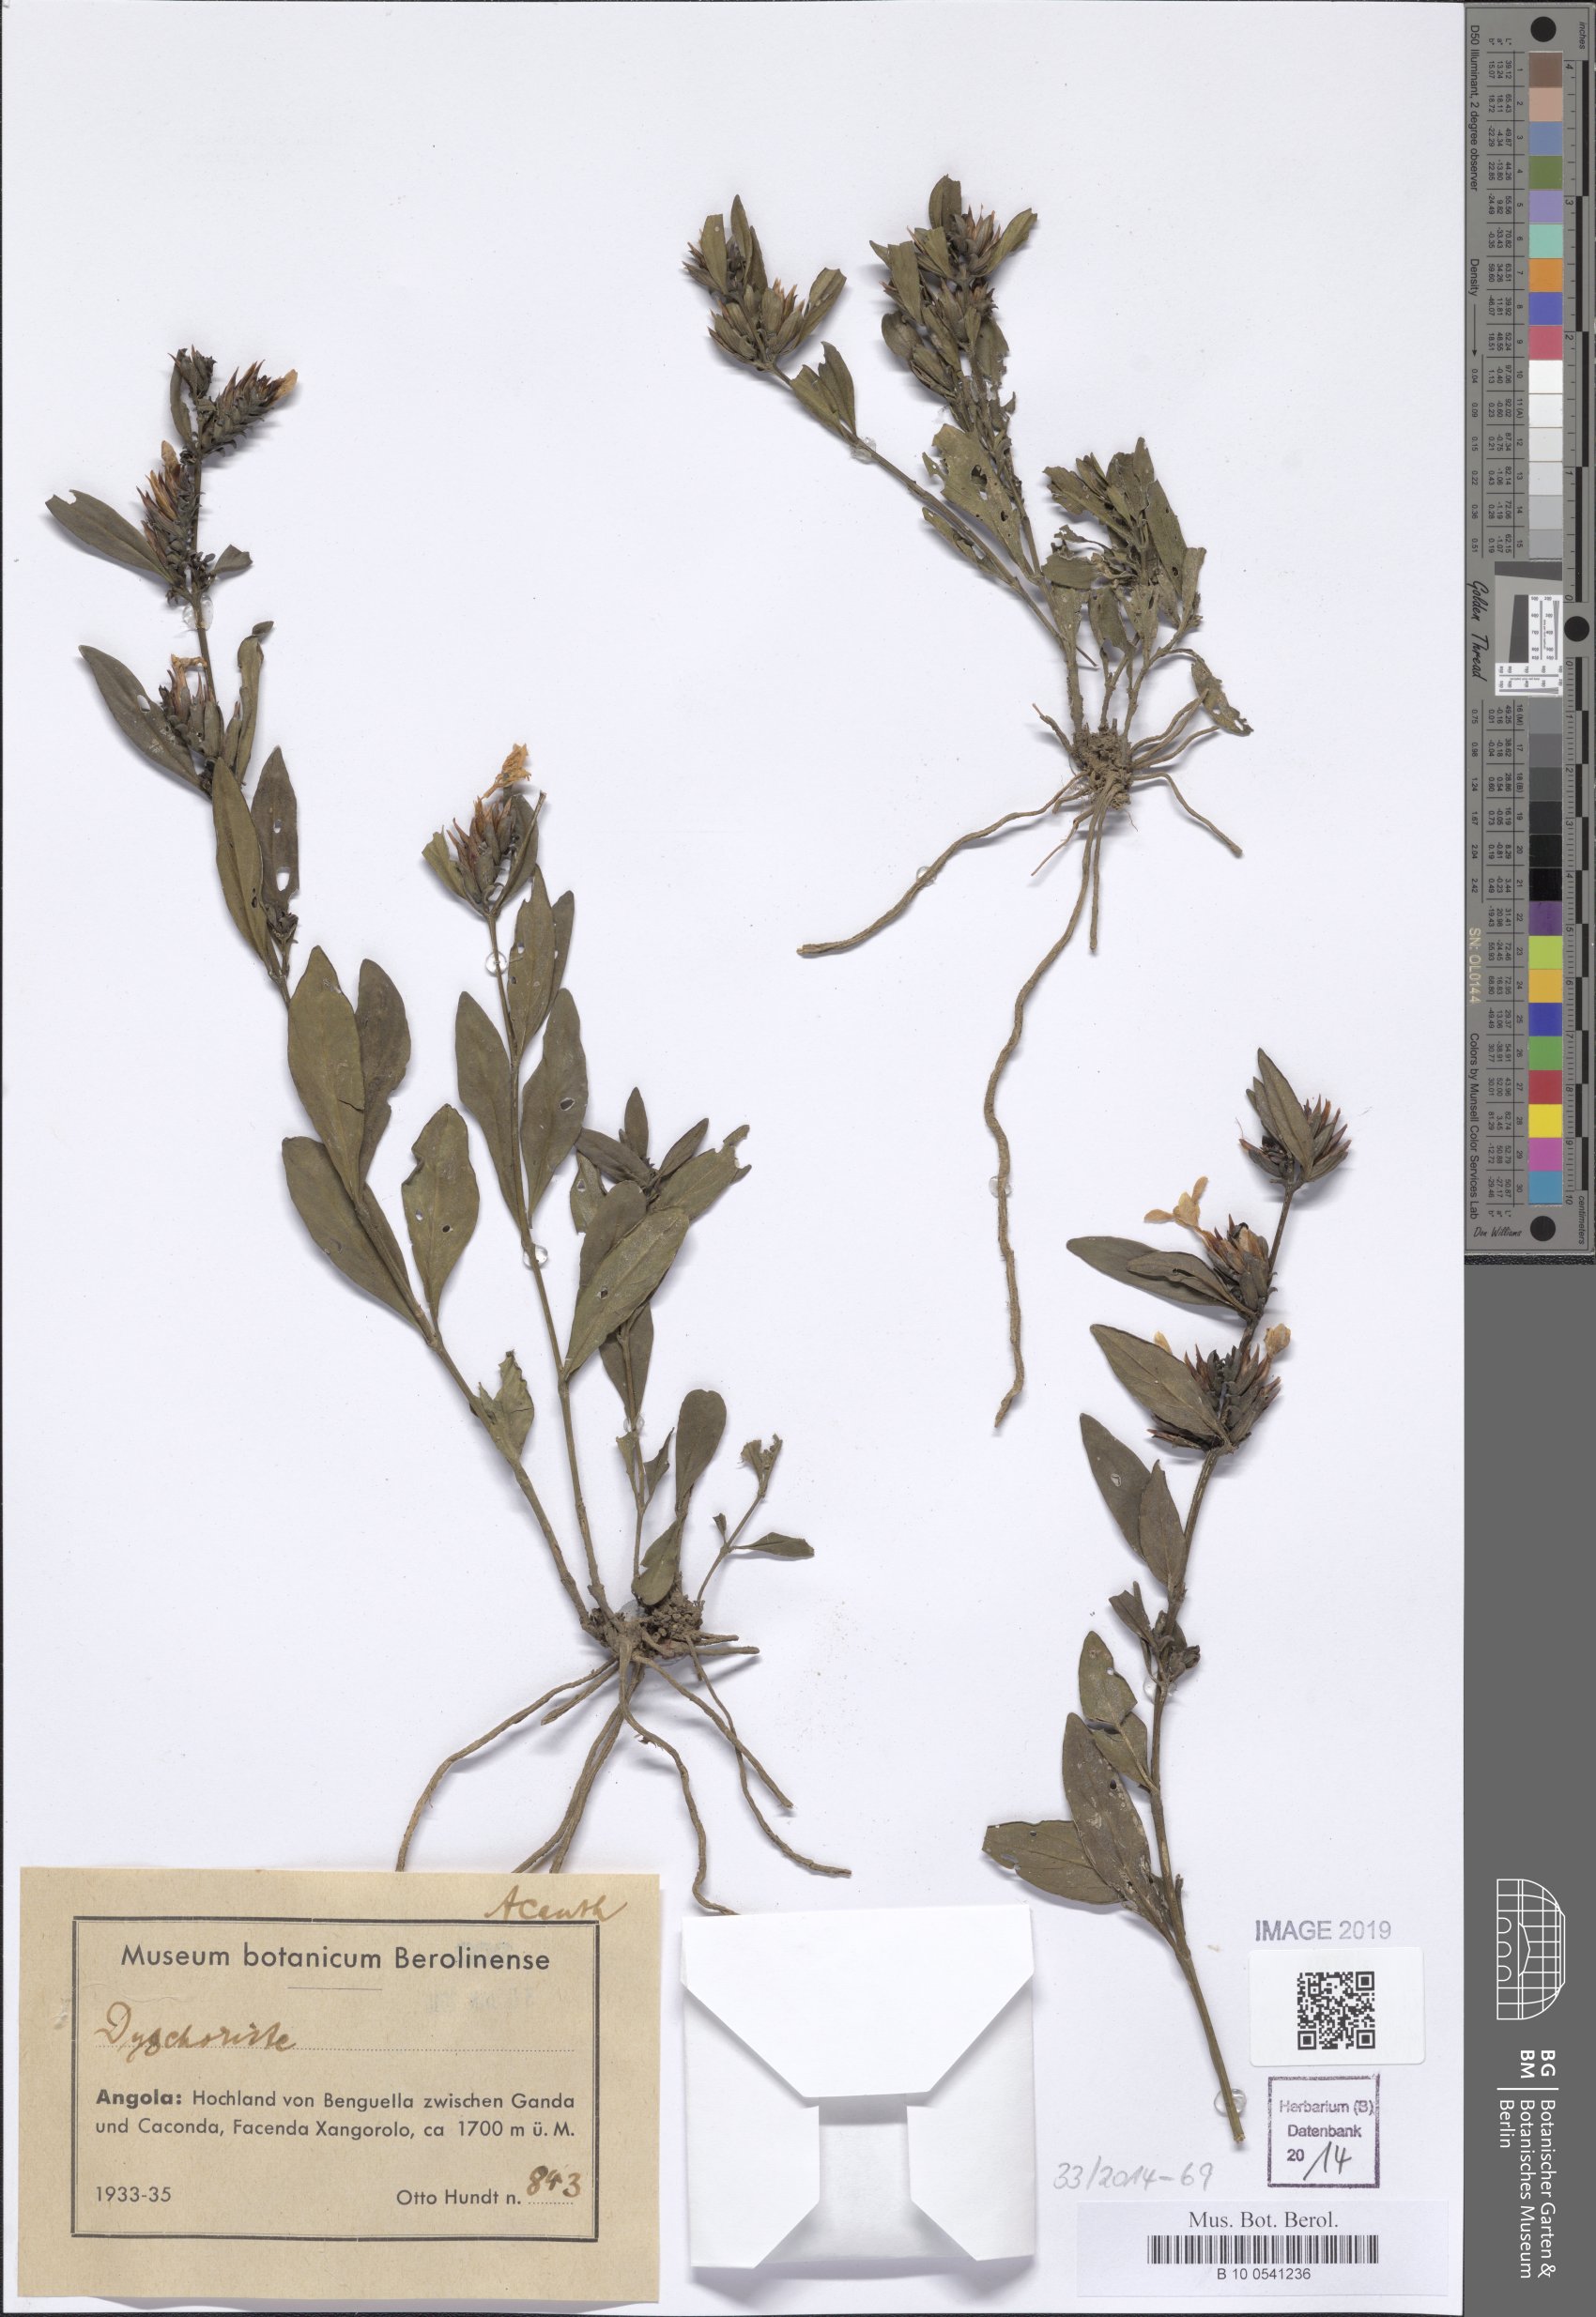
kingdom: Plantae
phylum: Tracheophyta
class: Magnoliopsida
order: Lamiales
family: Acanthaceae
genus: Dyschoriste
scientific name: Dyschoriste
